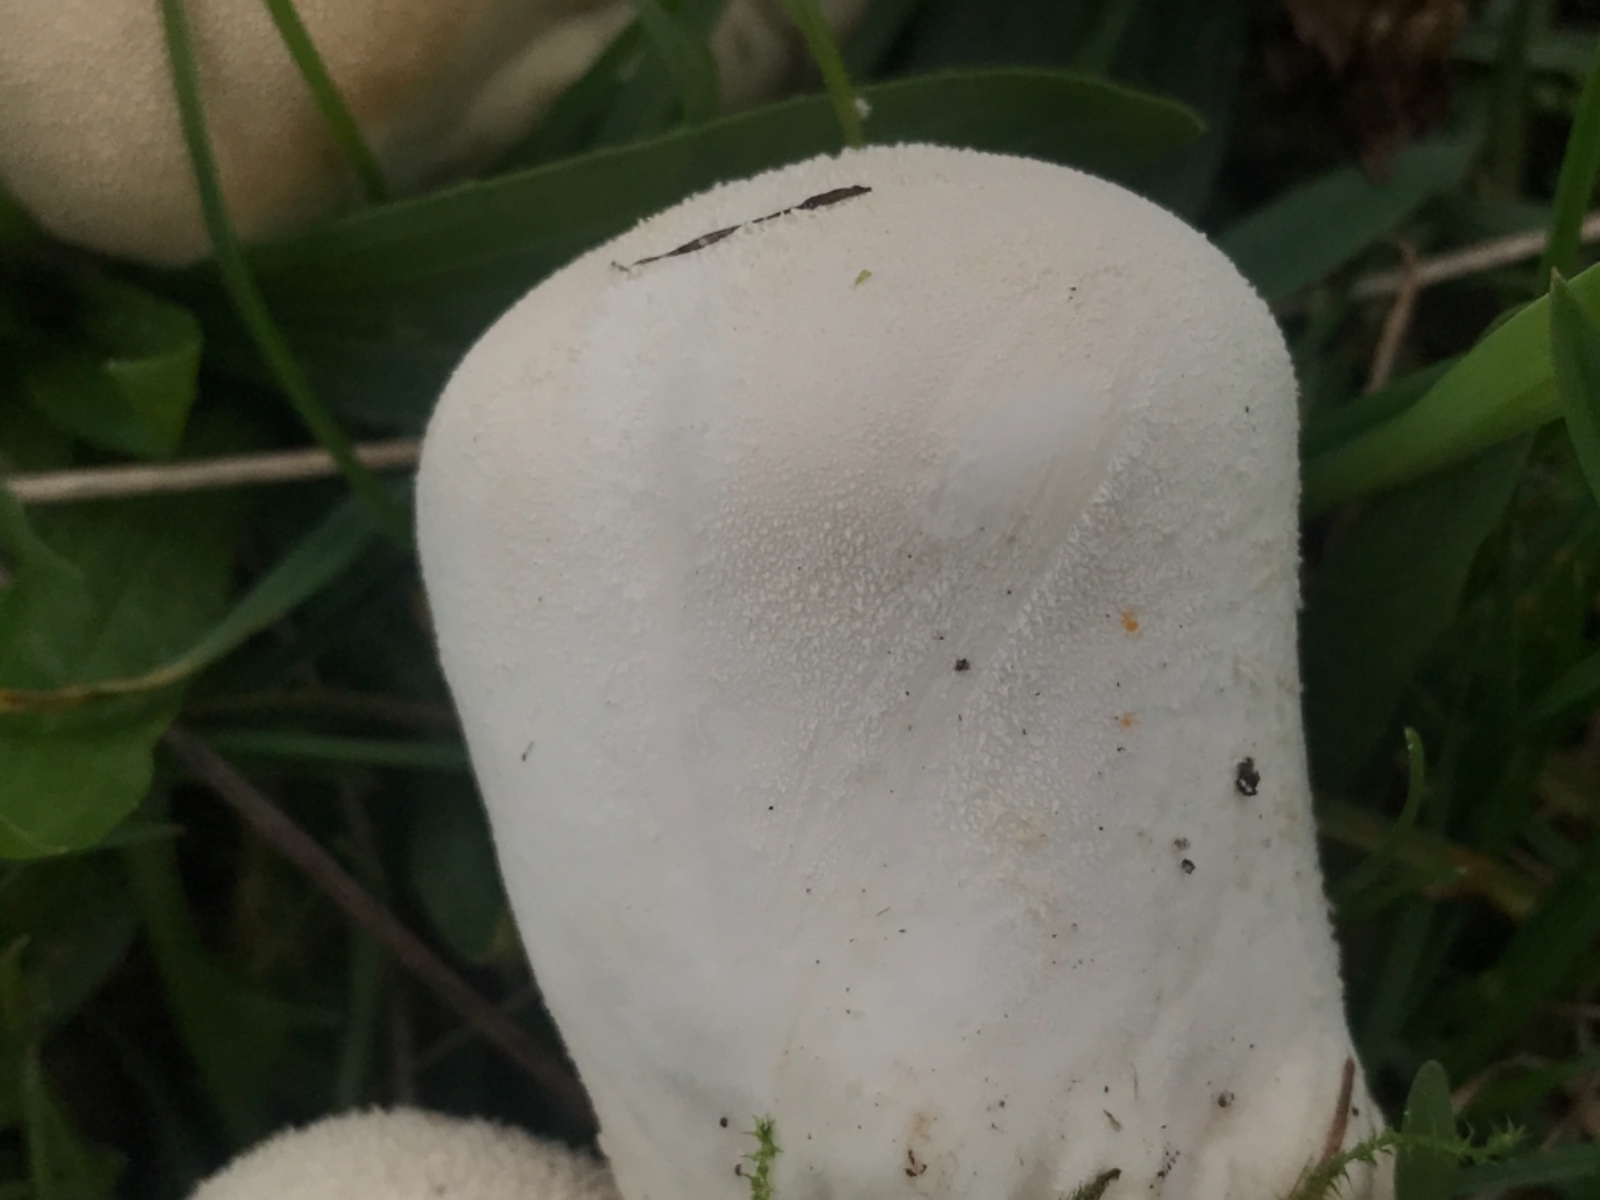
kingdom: Fungi
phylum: Basidiomycota
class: Agaricomycetes
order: Agaricales
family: Lycoperdaceae
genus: Lycoperdon
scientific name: Lycoperdon pratense
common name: flad støvbold
